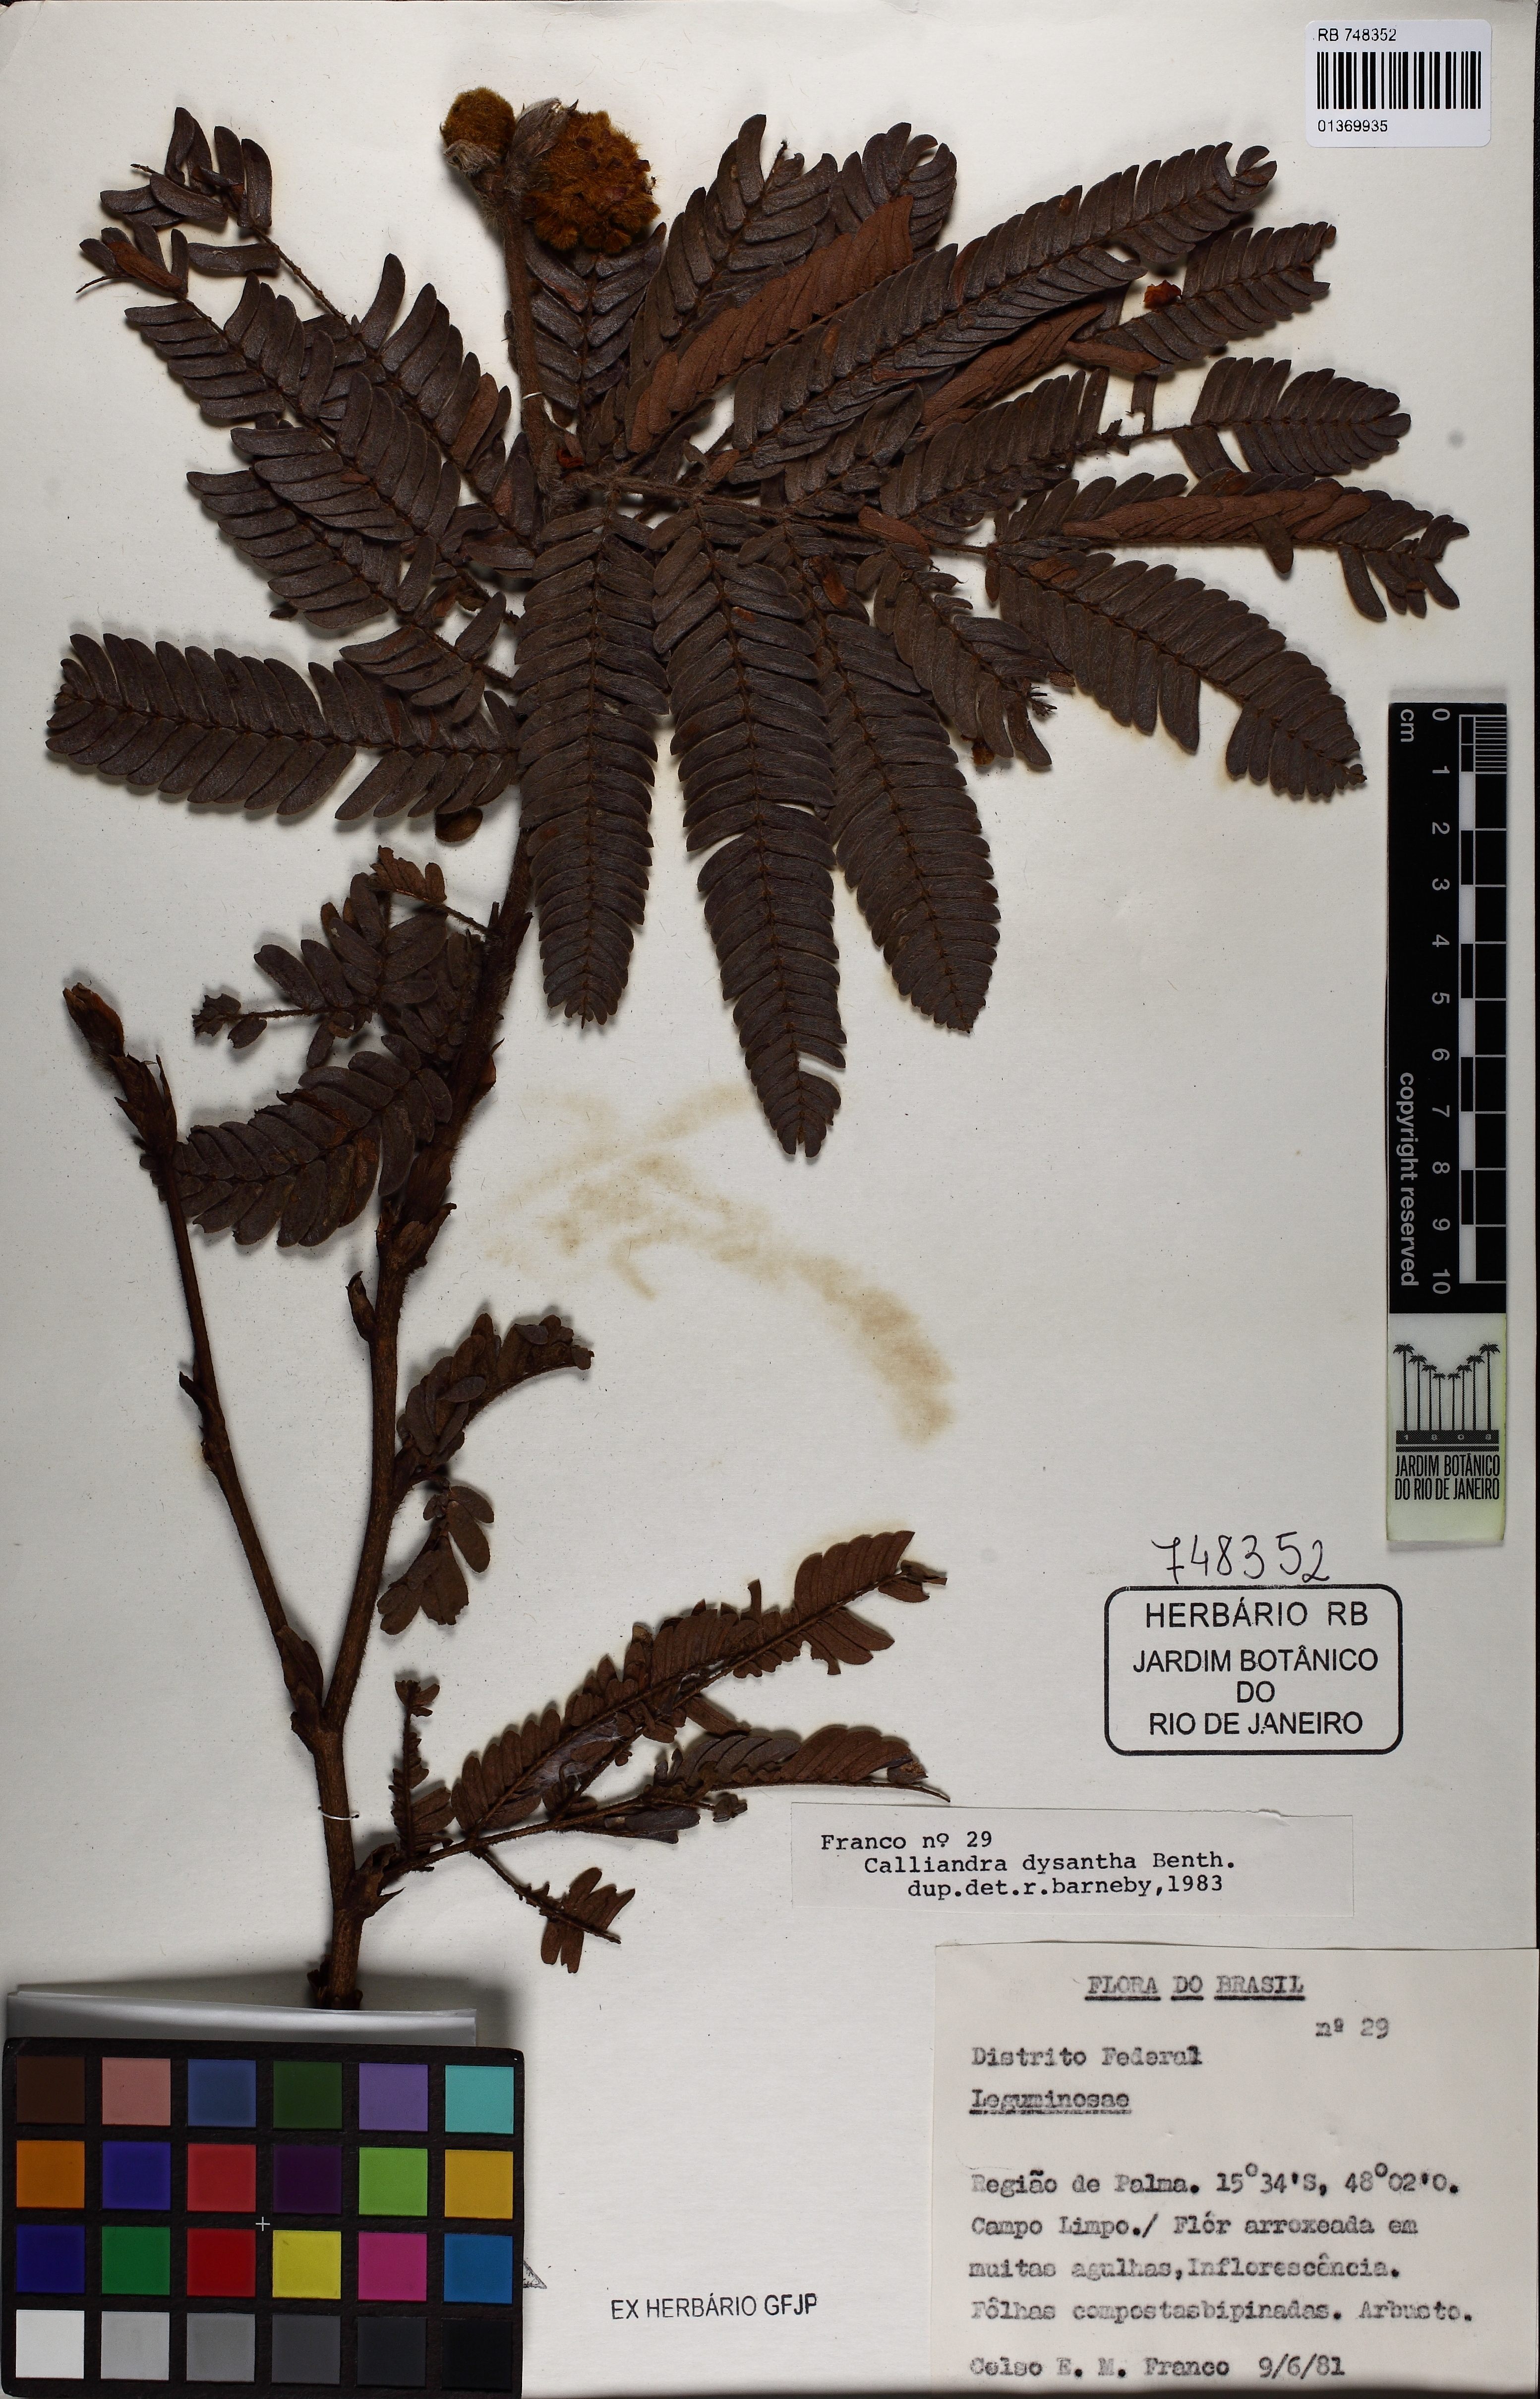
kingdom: Plantae
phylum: Tracheophyta
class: Magnoliopsida
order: Fabales
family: Fabaceae
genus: Calliandra
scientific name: Calliandra dysantha
